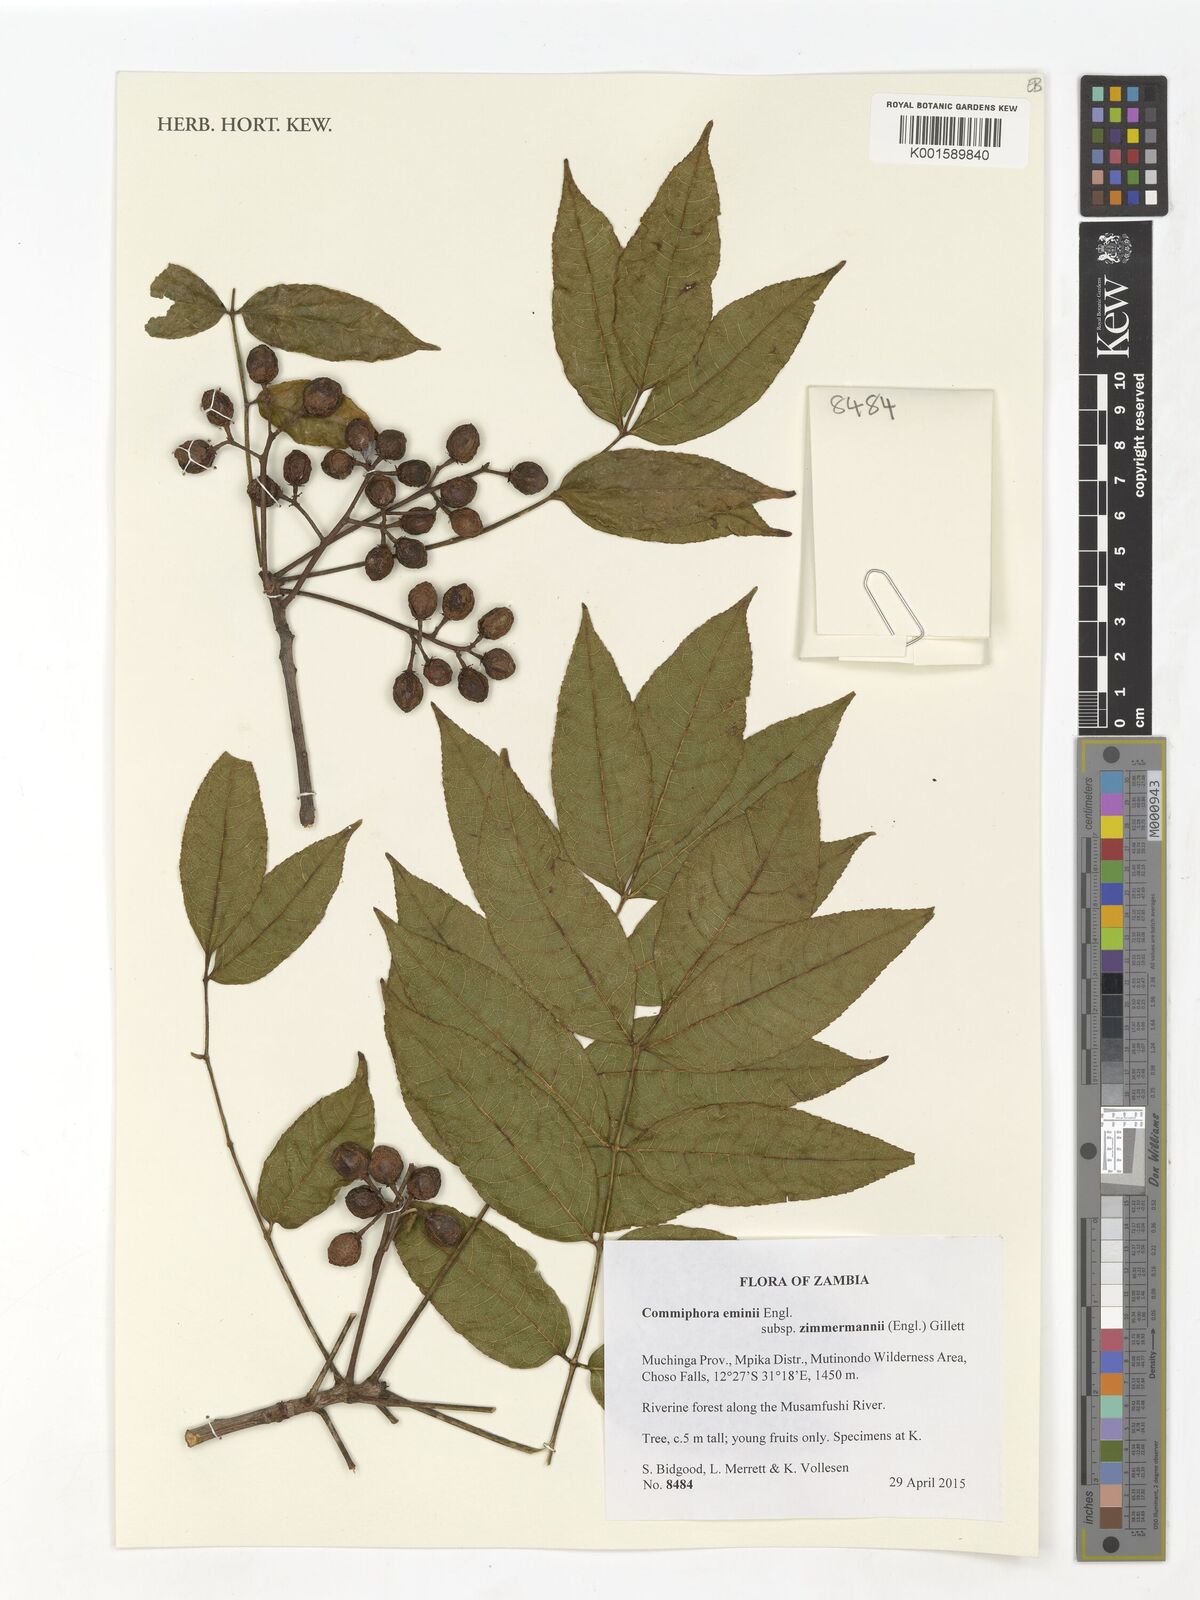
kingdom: Plantae
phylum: Tracheophyta
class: Magnoliopsida
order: Sapindales
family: Burseraceae
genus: Commiphora
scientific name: Commiphora eminii
